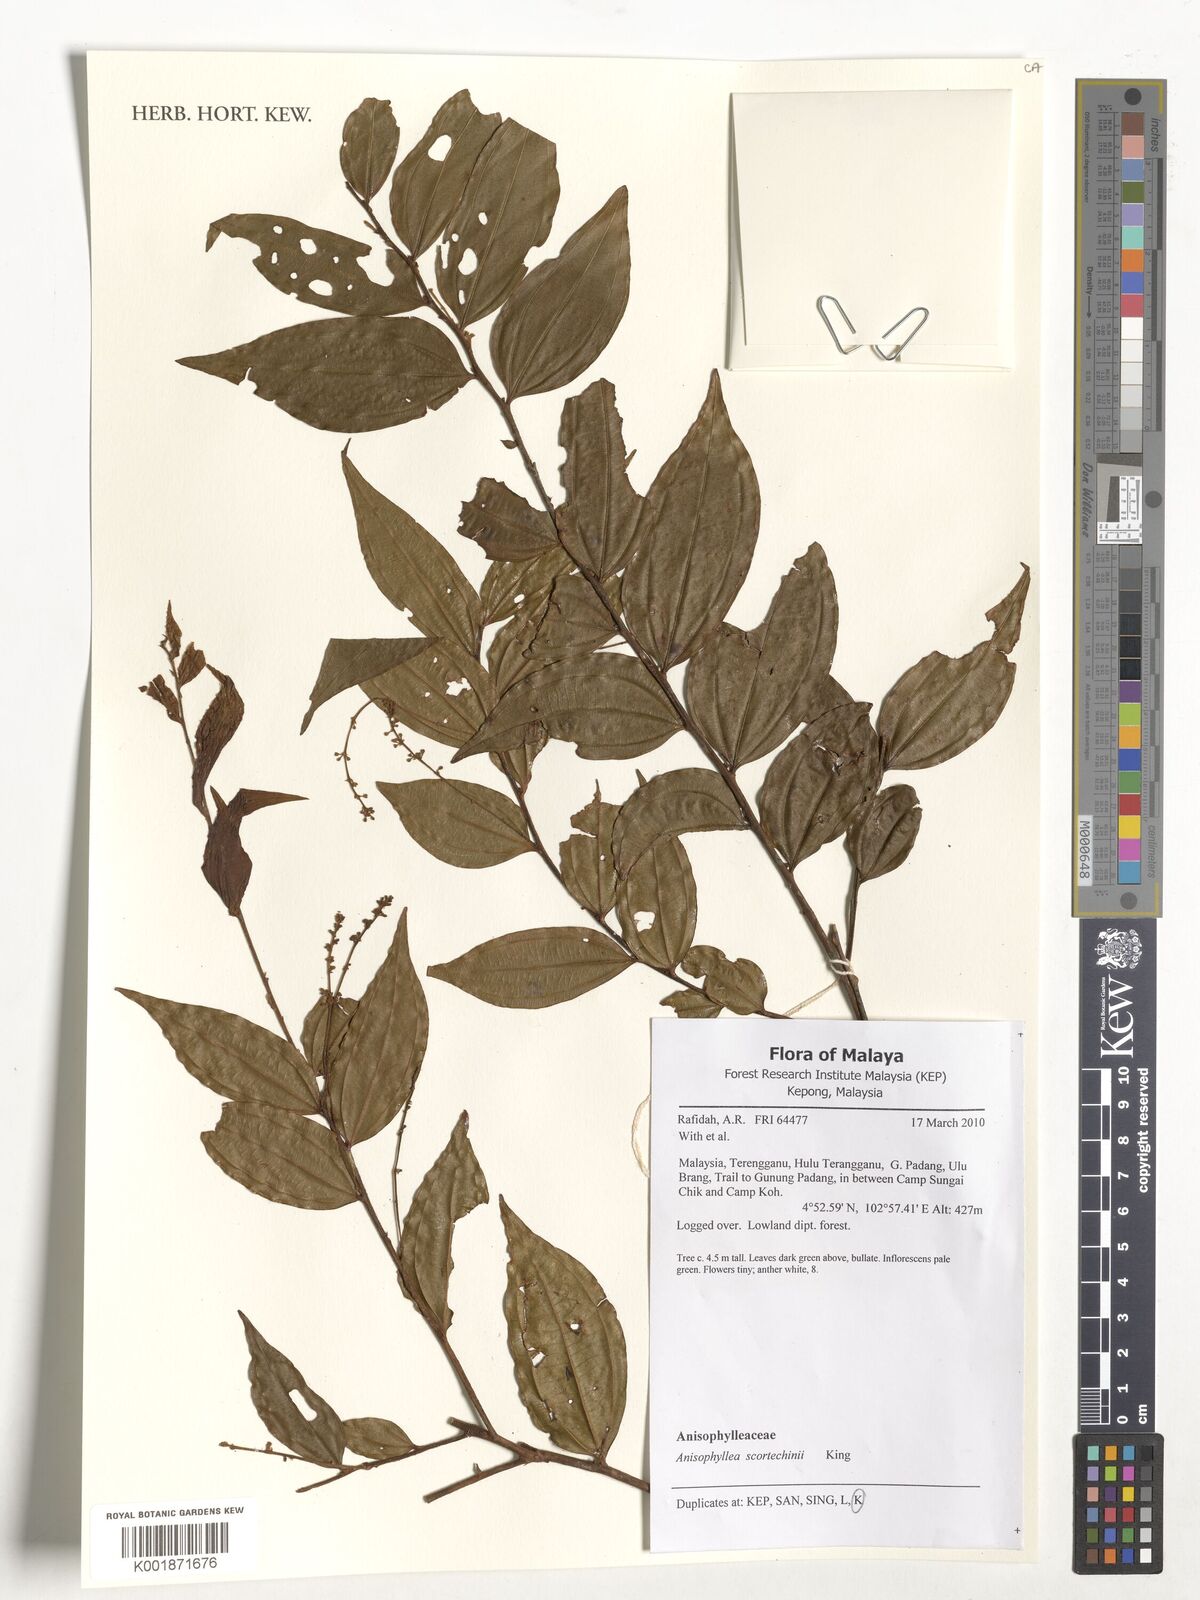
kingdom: Plantae
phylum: Tracheophyta
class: Magnoliopsida
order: Cucurbitales
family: Anisophylleaceae
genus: Anisophyllea
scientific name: Anisophyllea scortechinii
